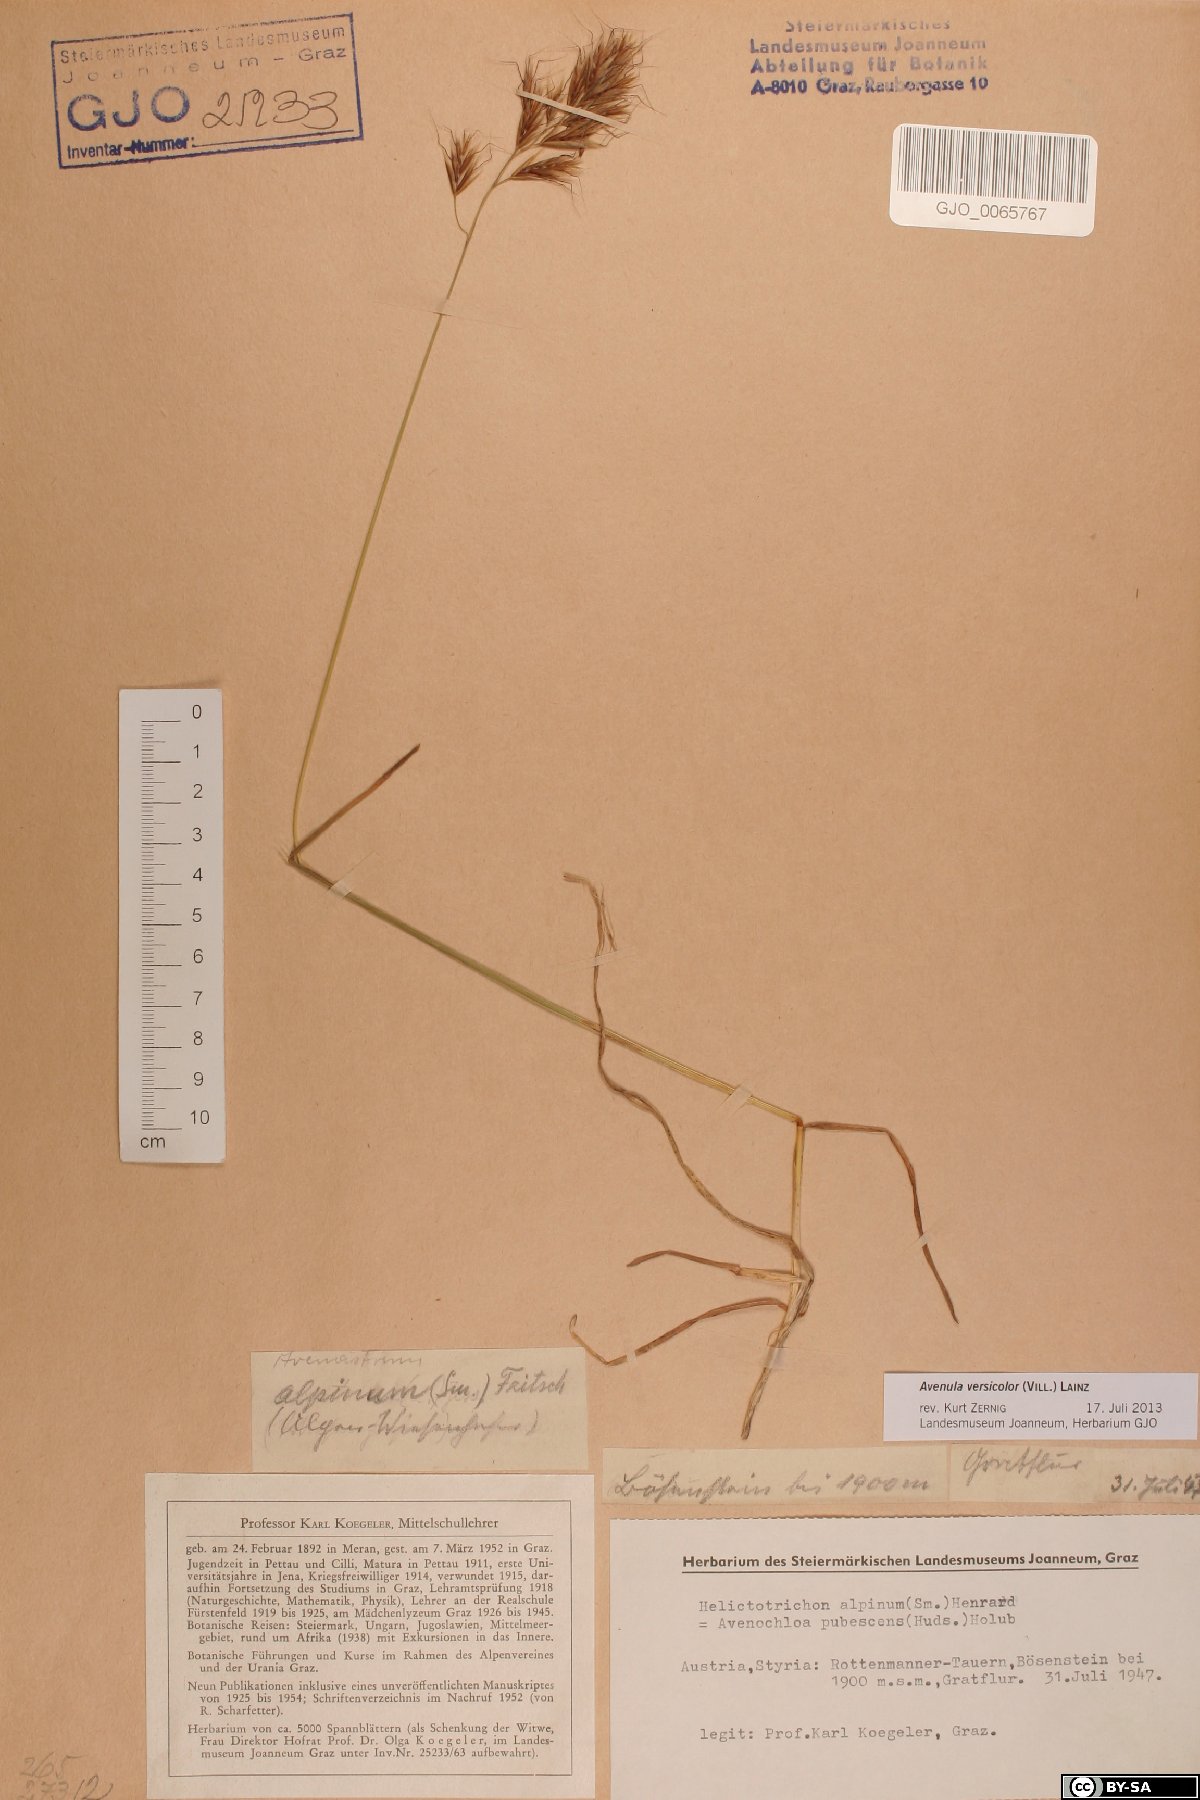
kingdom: Plantae
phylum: Tracheophyta
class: Liliopsida
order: Poales
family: Poaceae
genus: Helictochloa
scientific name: Helictochloa versicolor
